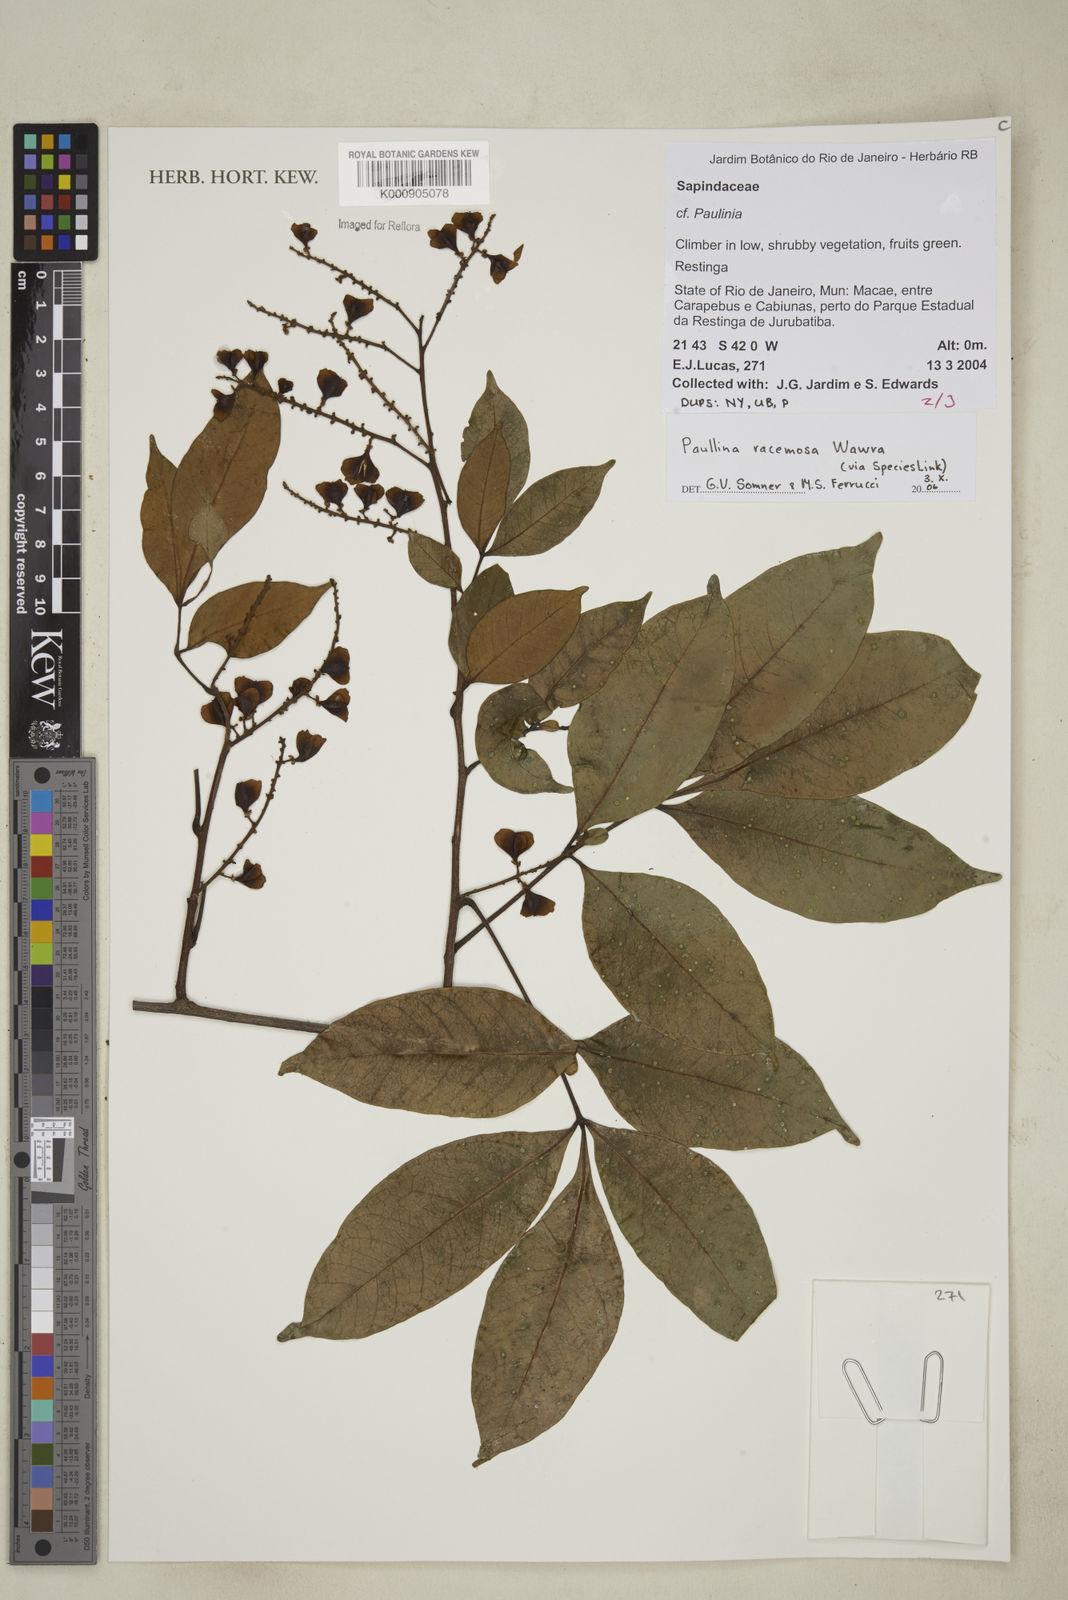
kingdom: Plantae
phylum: Tracheophyta
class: Magnoliopsida
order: Sapindales
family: Sapindaceae
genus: Paullinia
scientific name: Paullinia racemosa
